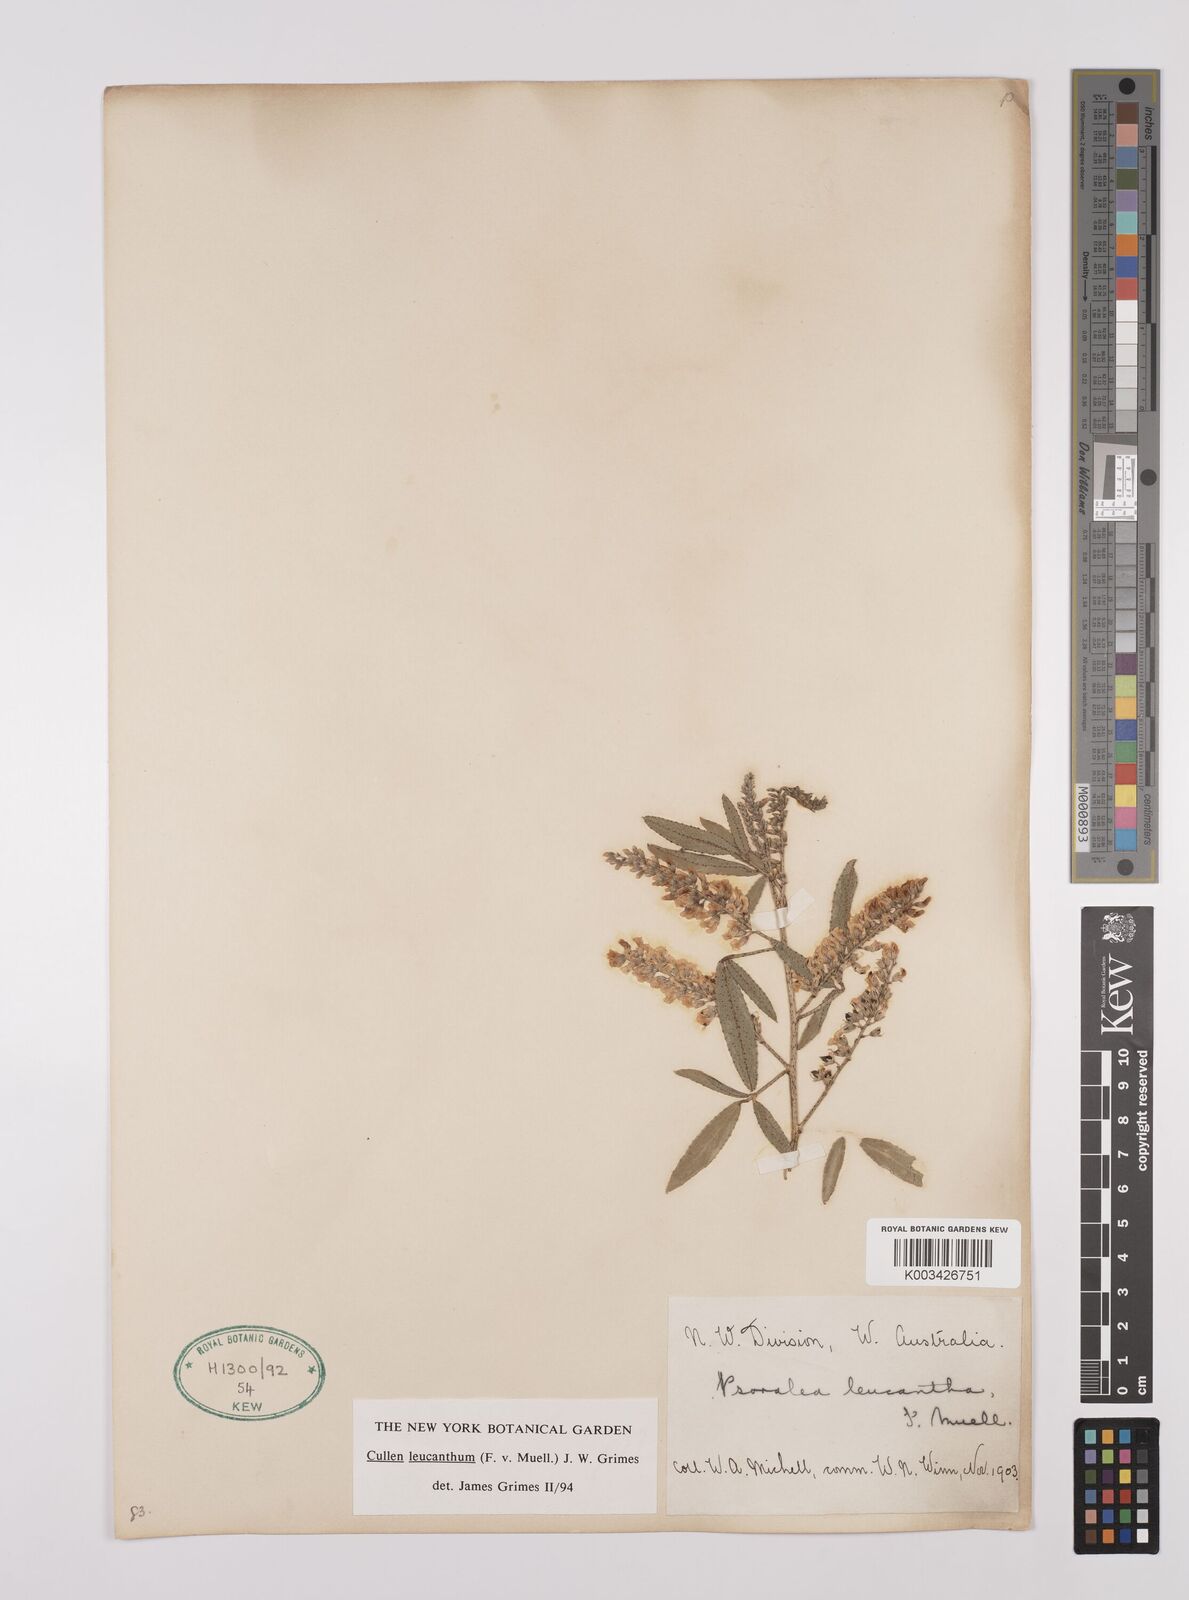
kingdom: Plantae
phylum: Tracheophyta
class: Magnoliopsida
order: Fabales
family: Fabaceae
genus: Cullen
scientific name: Cullen leucanthum
